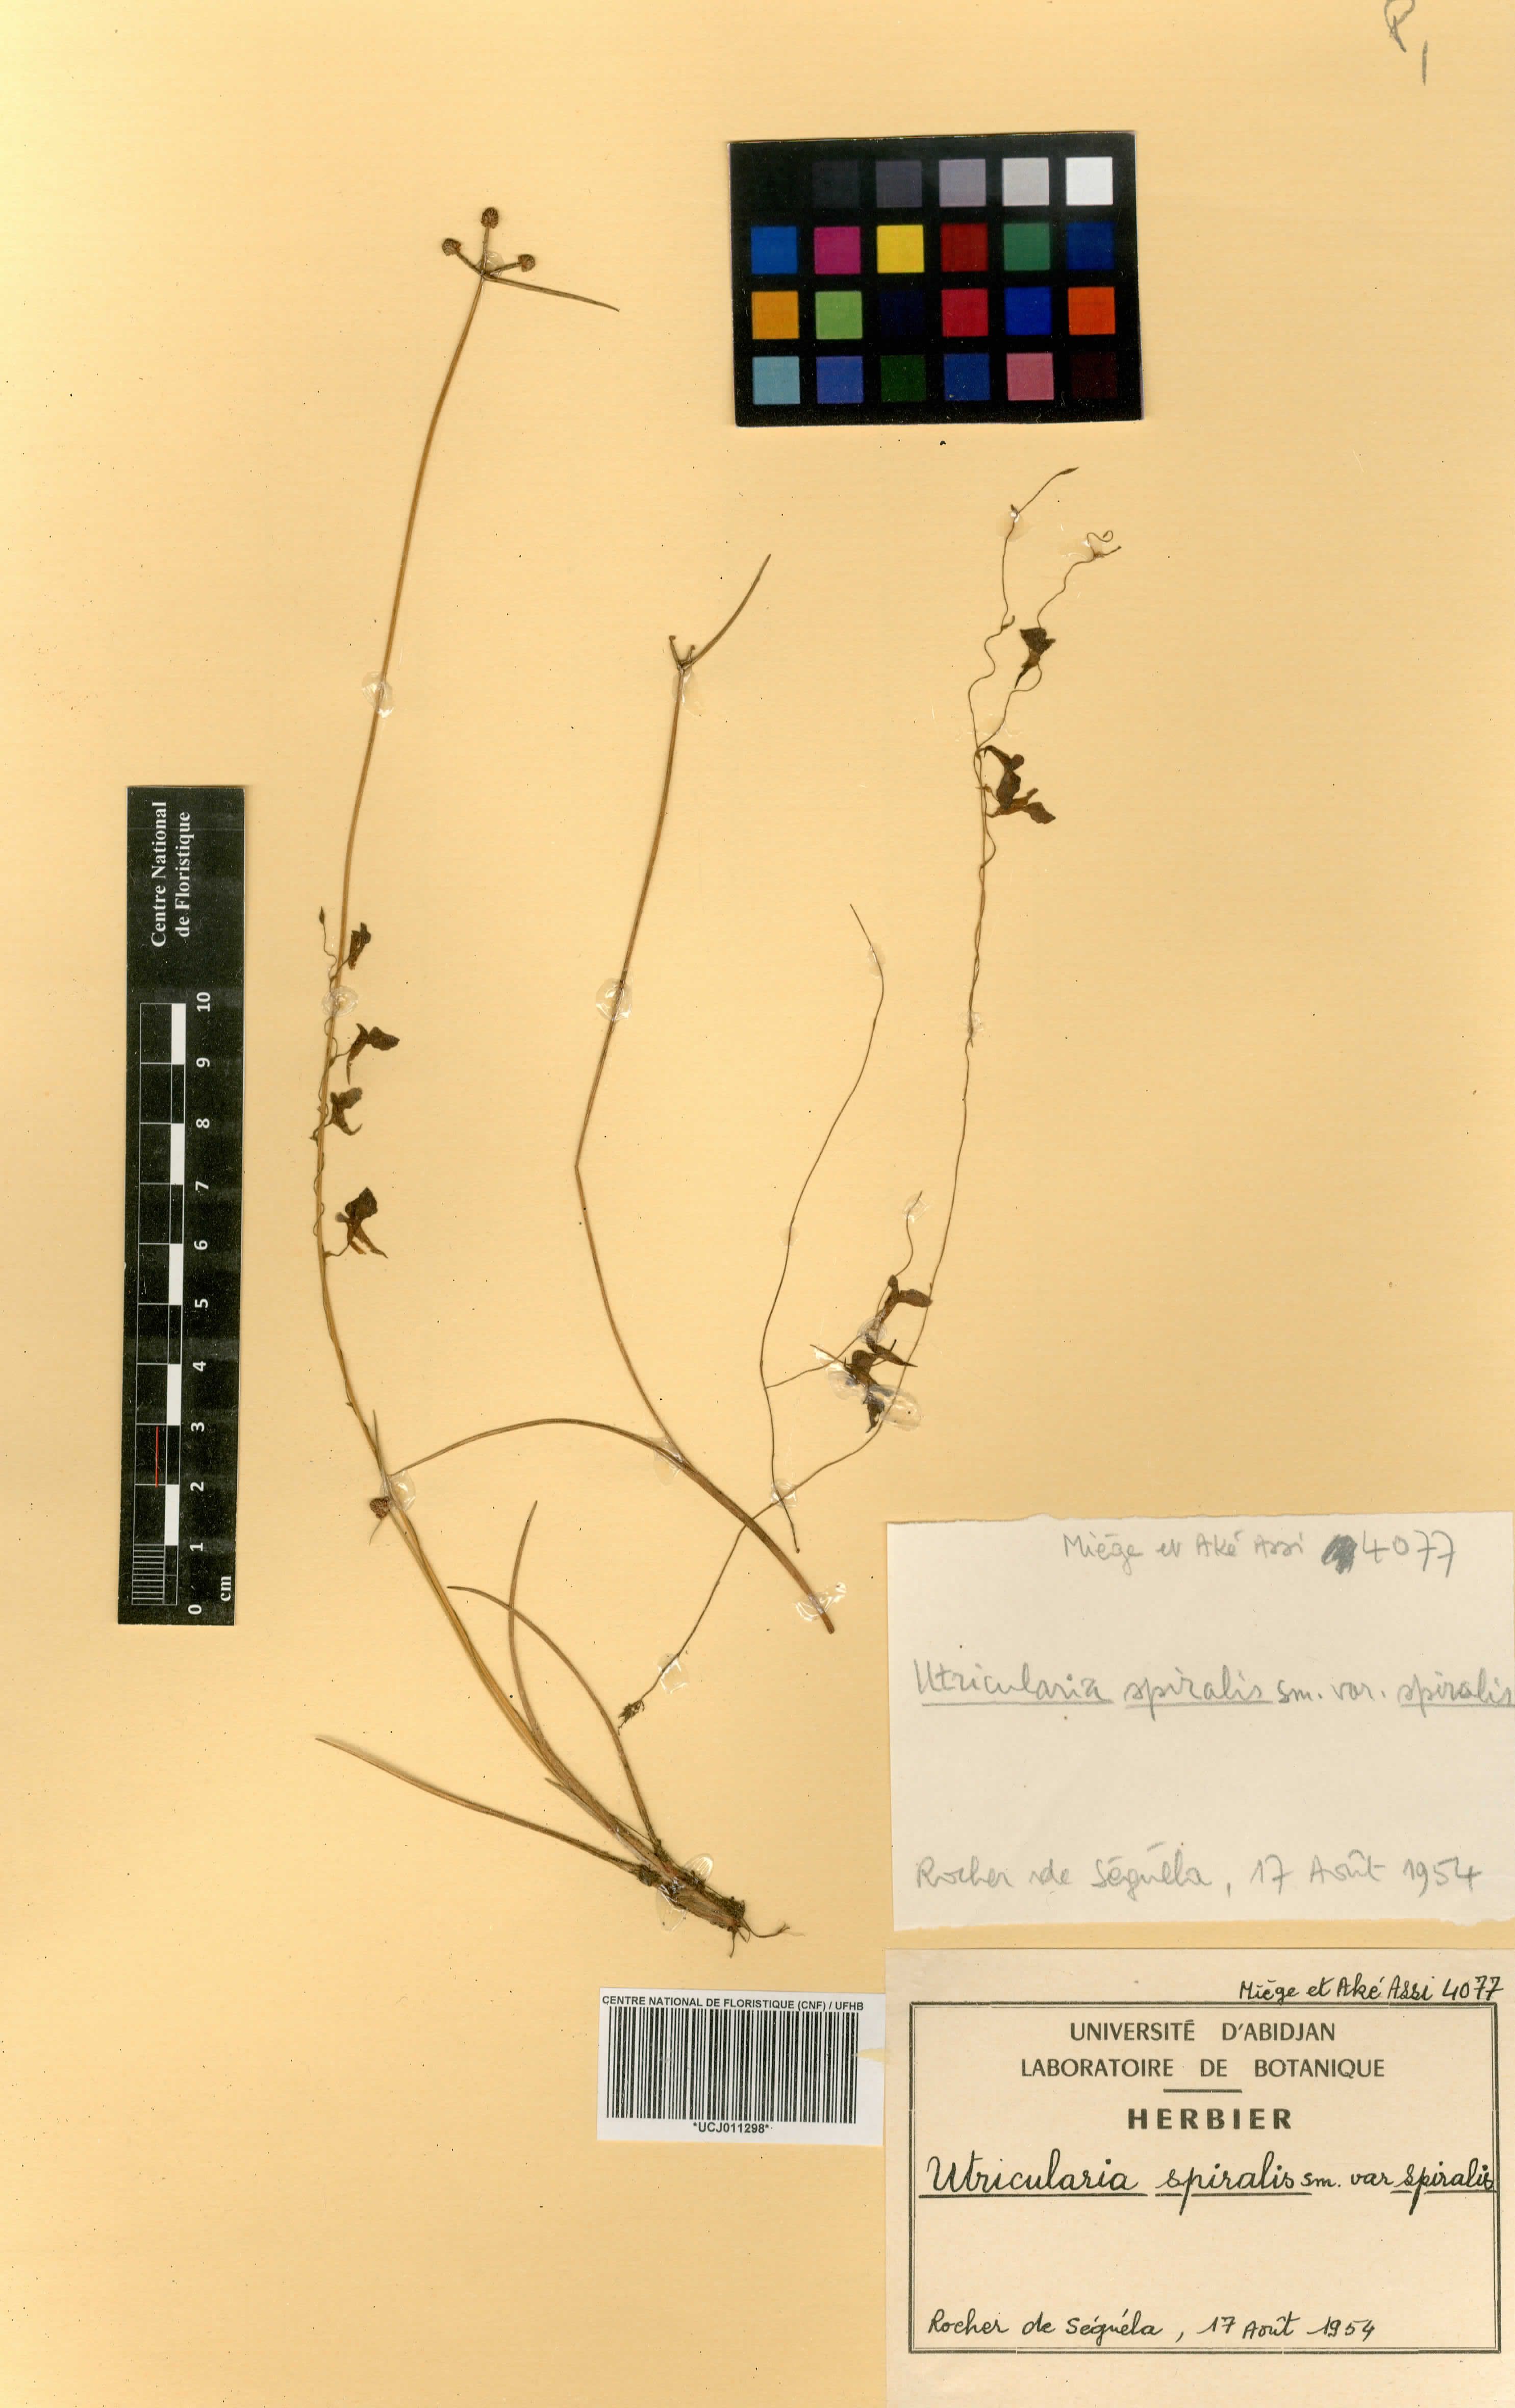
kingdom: Plantae
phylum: Tracheophyta
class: Magnoliopsida
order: Lamiales
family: Lentibulariaceae
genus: Utricularia
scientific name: Utricularia tortilis
